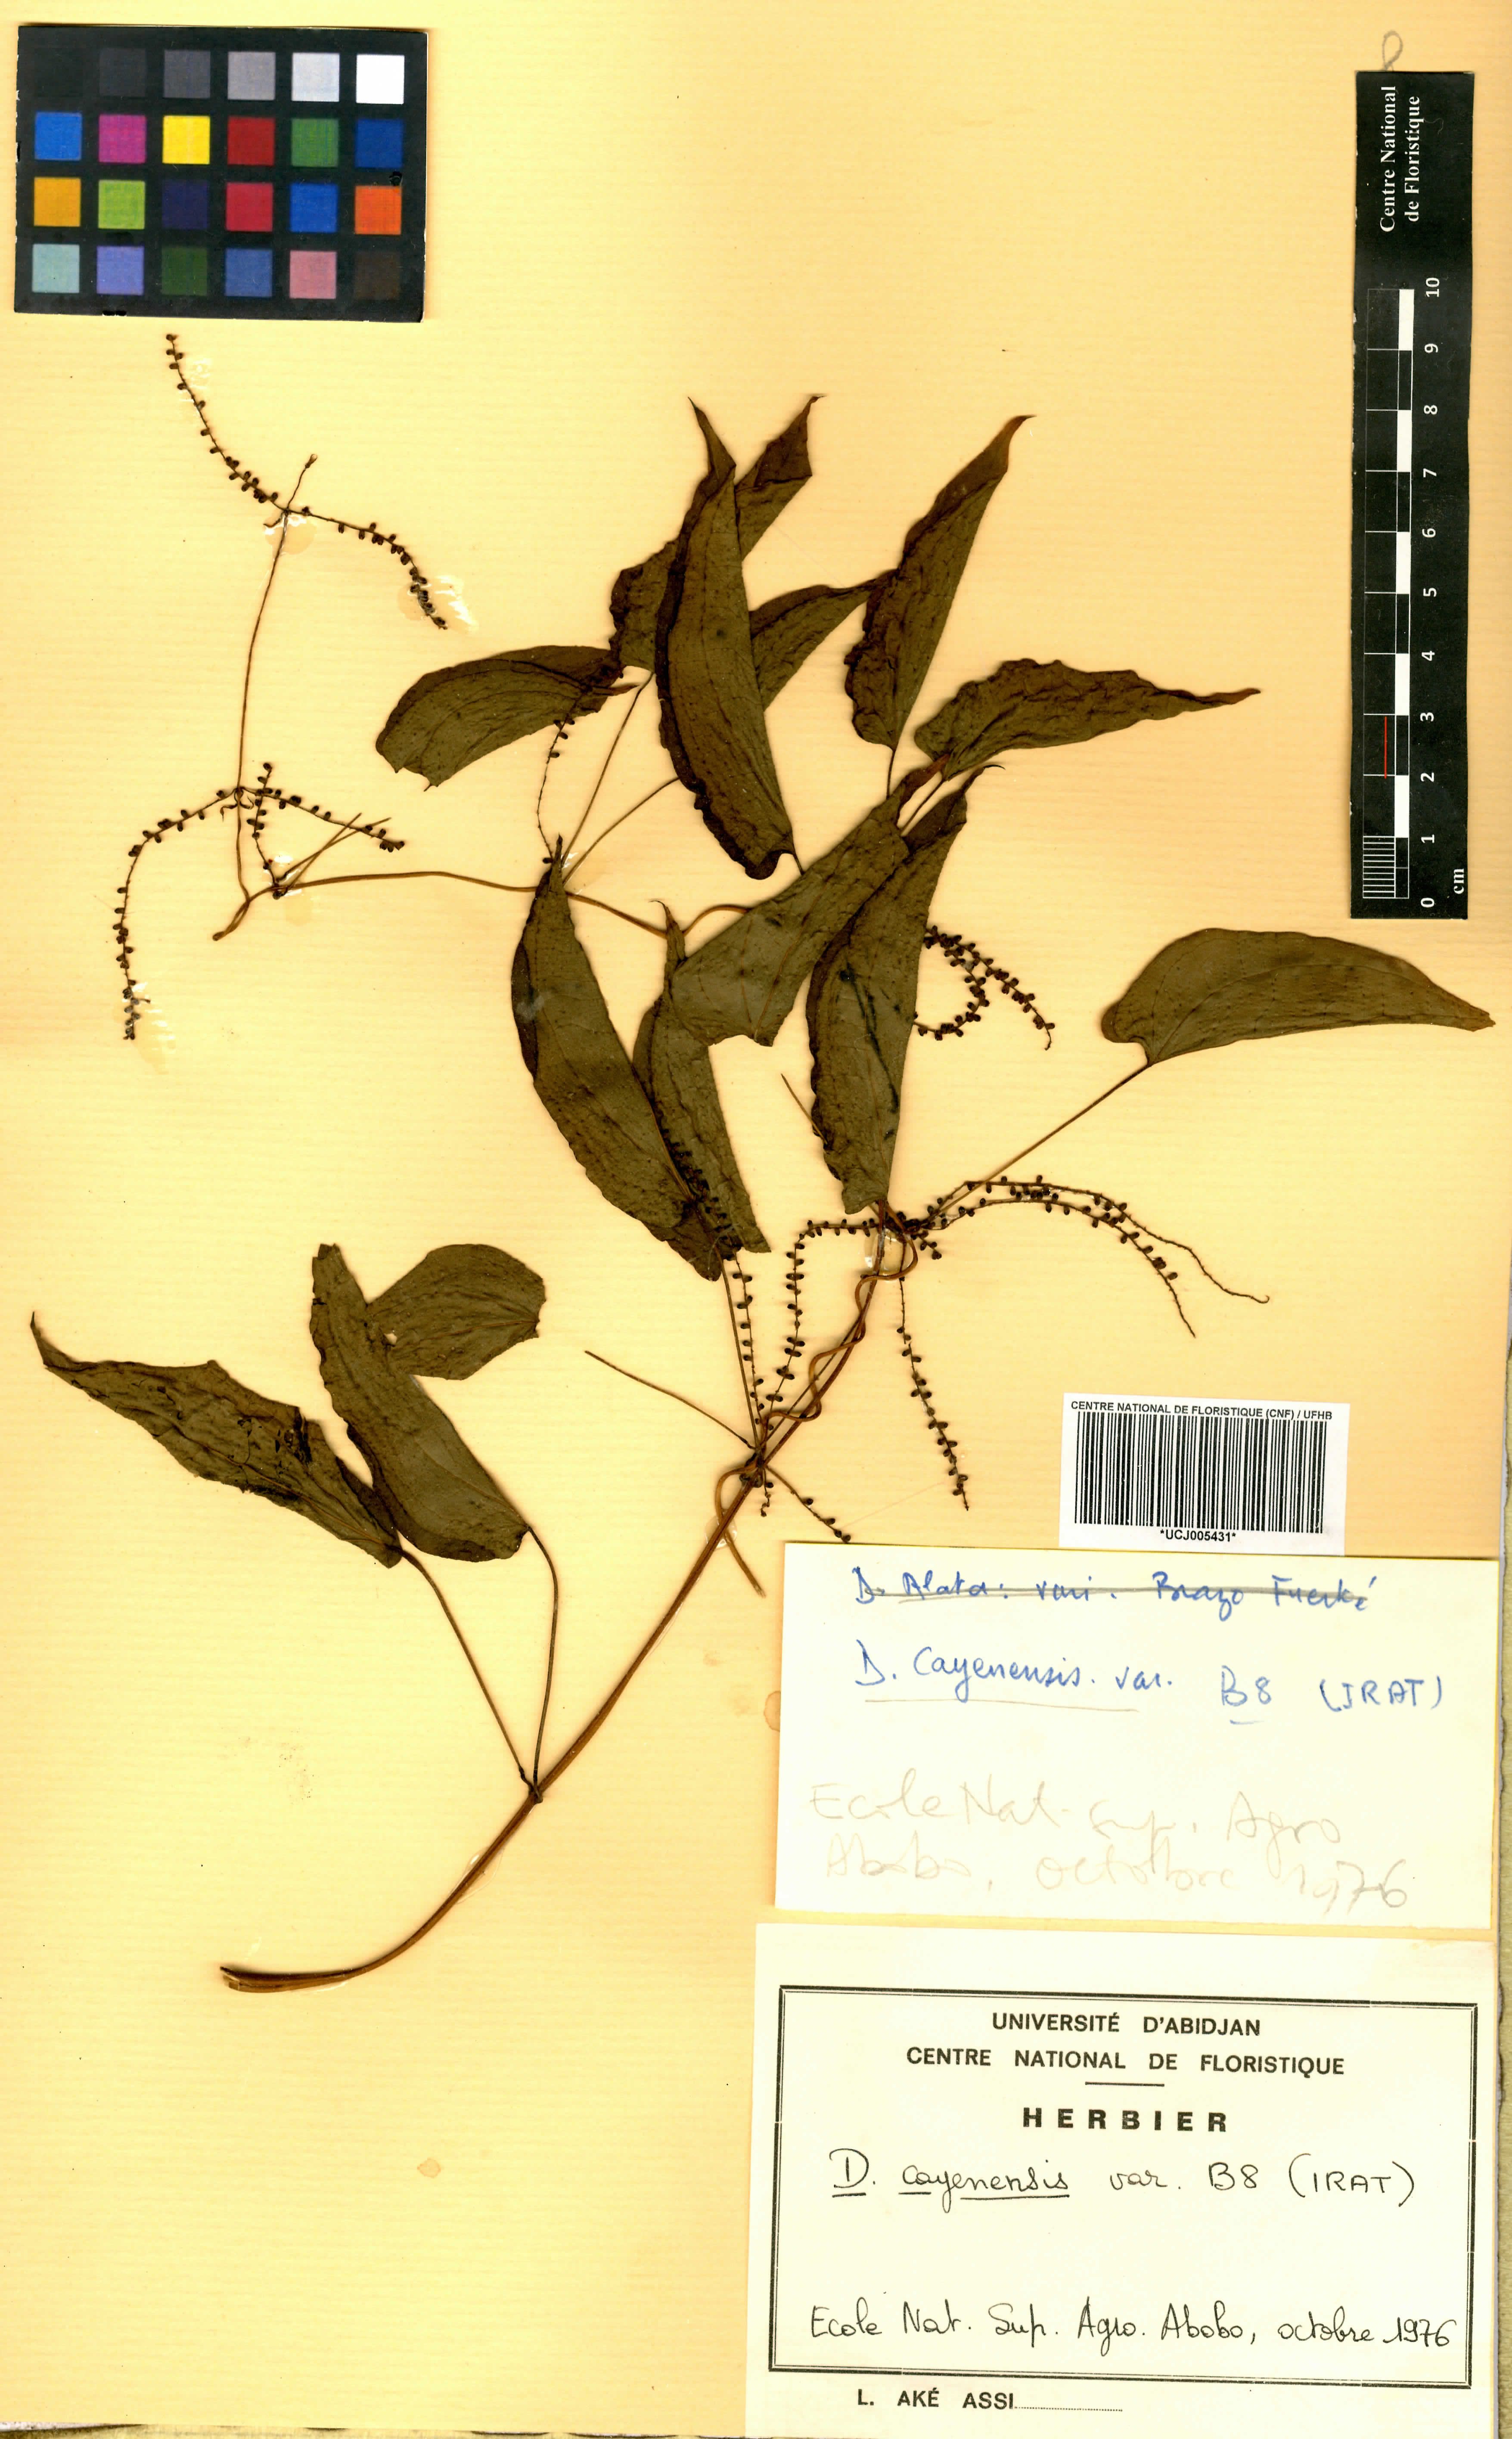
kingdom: Plantae
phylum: Tracheophyta
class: Liliopsida
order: Dioscoreales
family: Dioscoreaceae
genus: Dioscorea
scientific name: Dioscorea cayenensis
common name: Attoto yam
